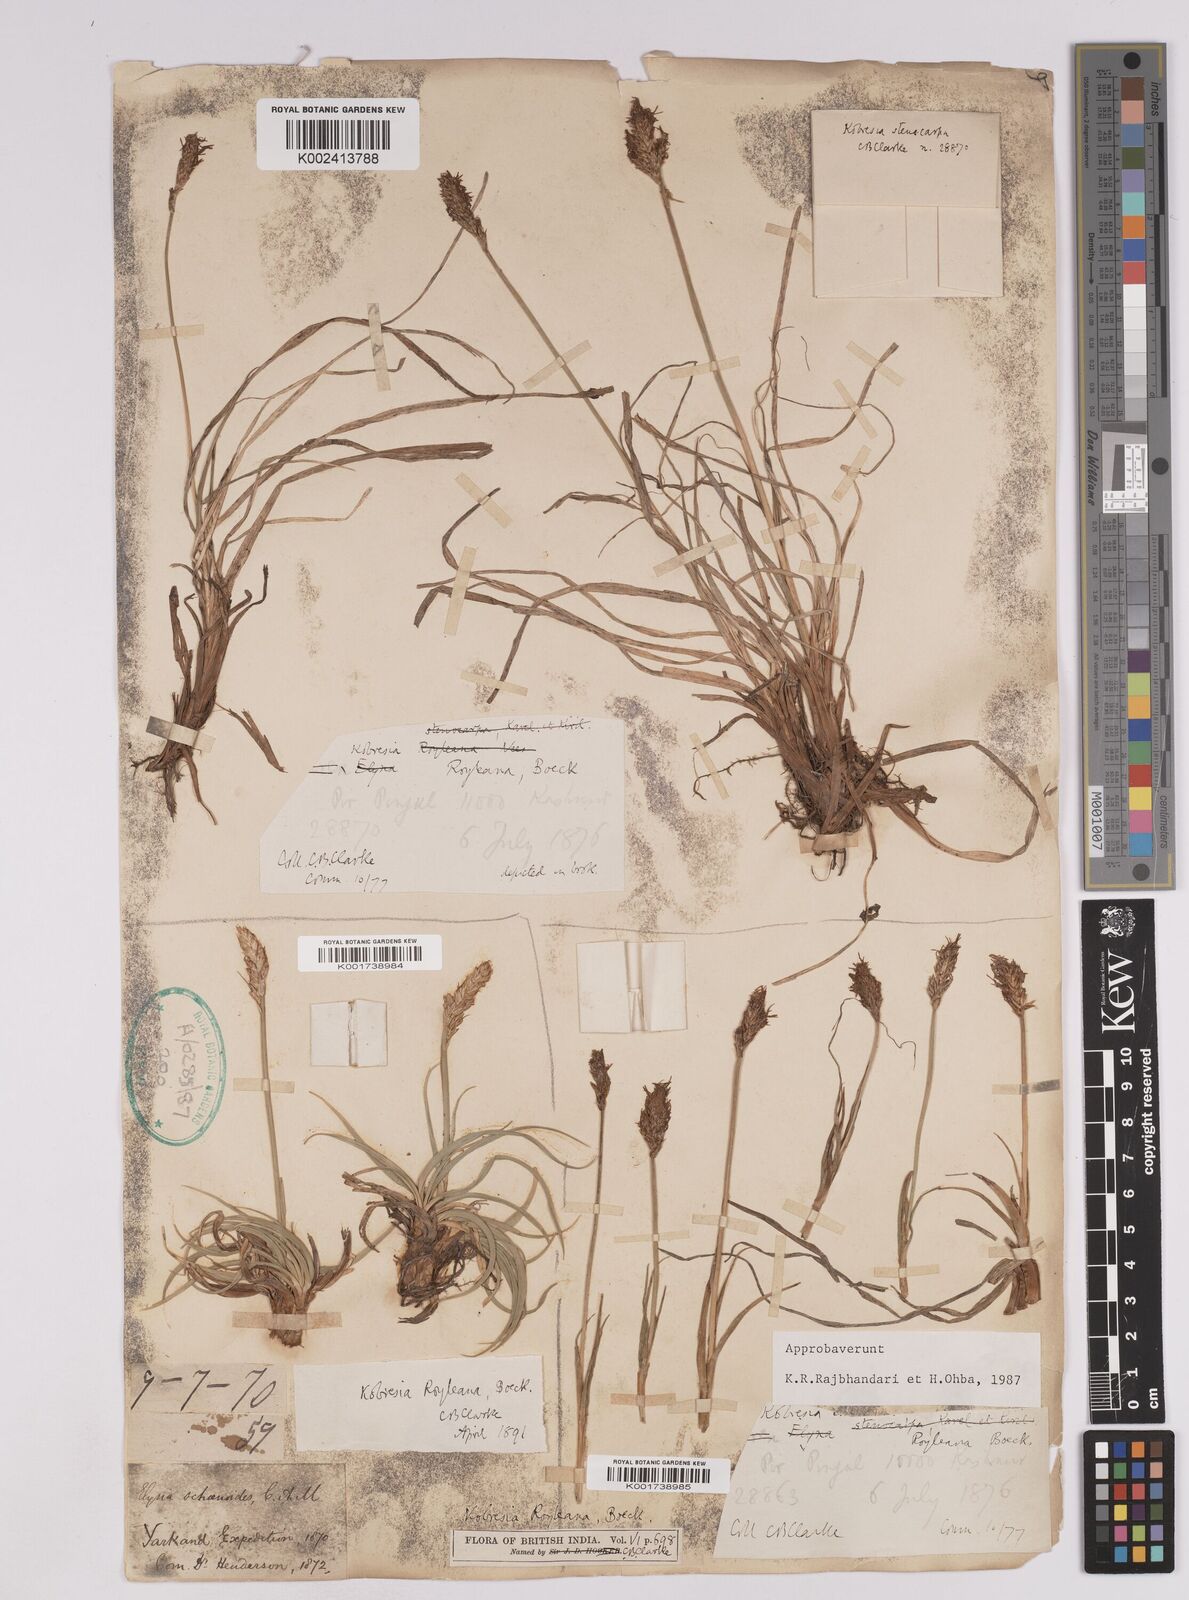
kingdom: Plantae
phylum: Tracheophyta
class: Liliopsida
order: Poales
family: Cyperaceae
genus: Carex
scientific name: Carex kokanica
